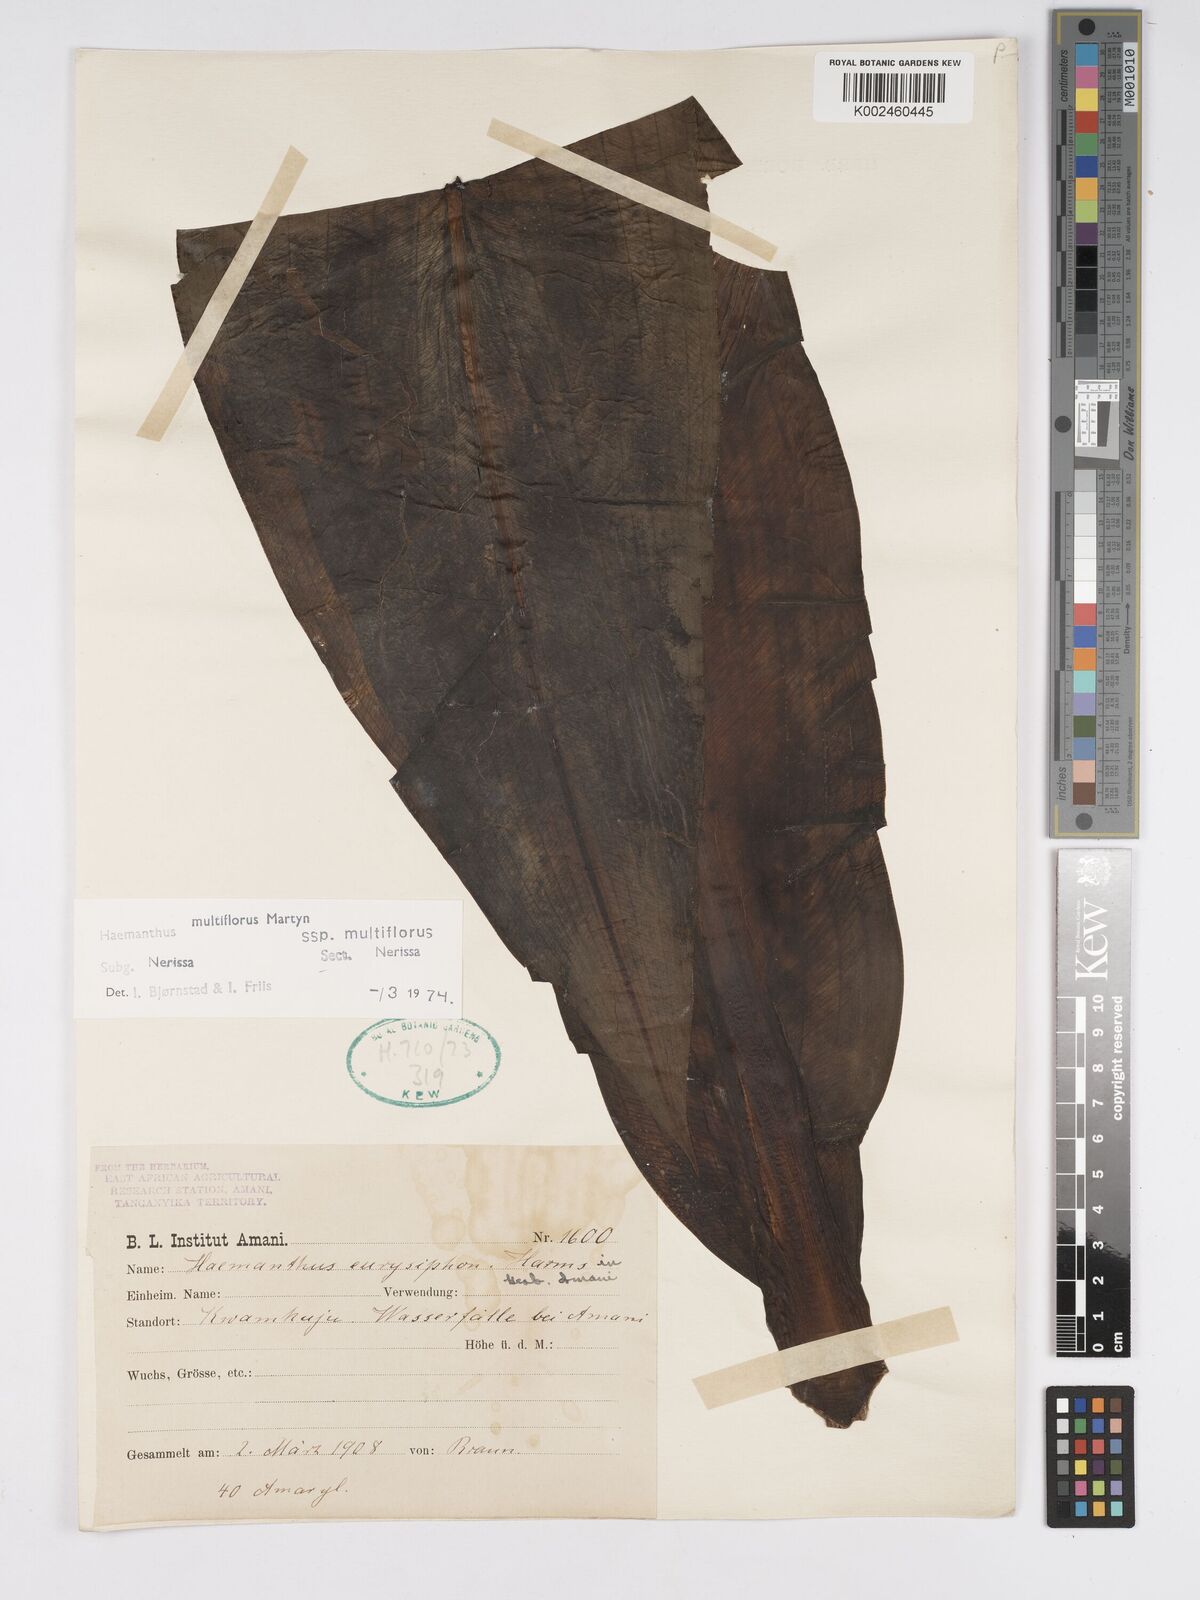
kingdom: Plantae
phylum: Tracheophyta
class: Liliopsida
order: Asparagales
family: Amaryllidaceae
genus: Scadoxus
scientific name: Scadoxus multiflorus
